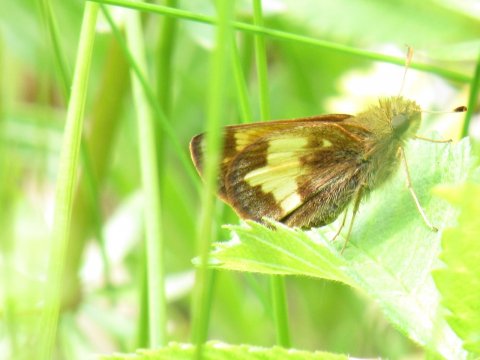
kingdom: Animalia
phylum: Arthropoda
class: Insecta
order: Lepidoptera
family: Hesperiidae
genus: Lon
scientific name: Lon hobomok
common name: Hobomok Skipper
